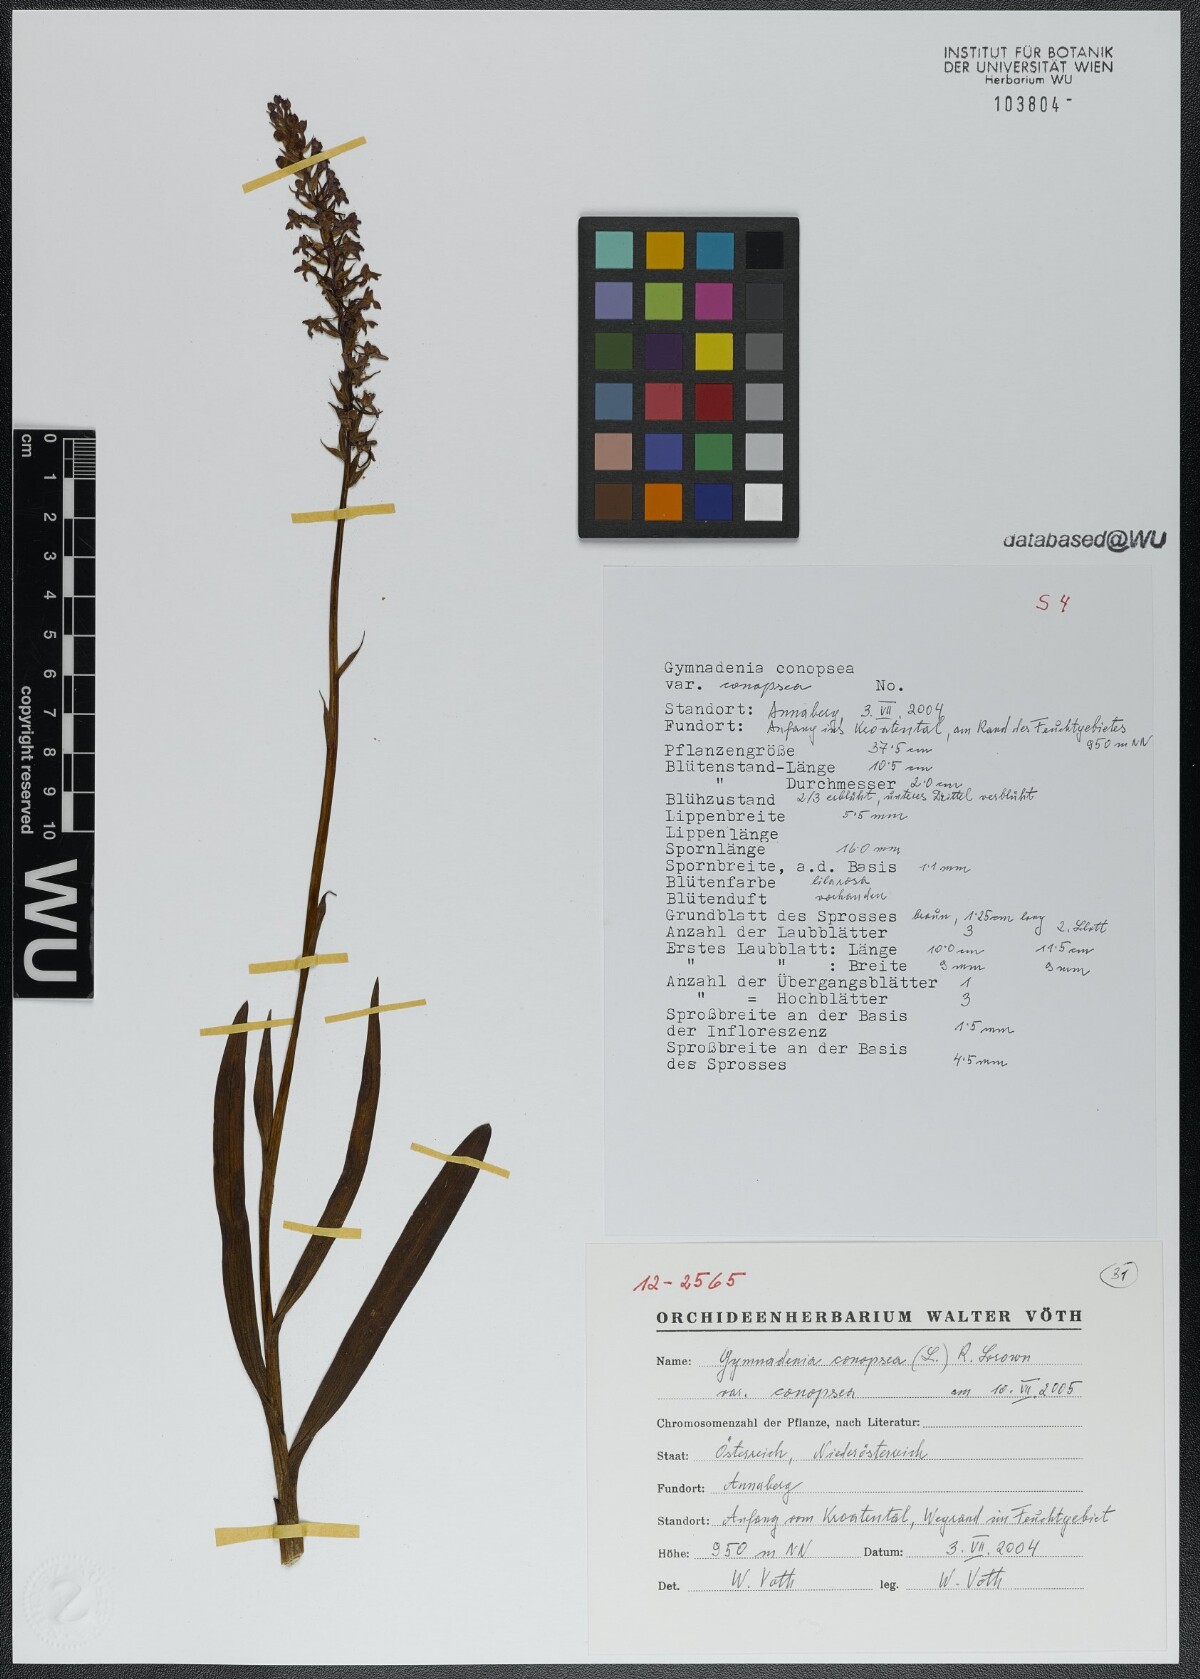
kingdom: Plantae
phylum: Tracheophyta
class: Liliopsida
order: Asparagales
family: Orchidaceae
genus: Gymnadenia
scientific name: Gymnadenia conopsea
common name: Fragrant orchid
